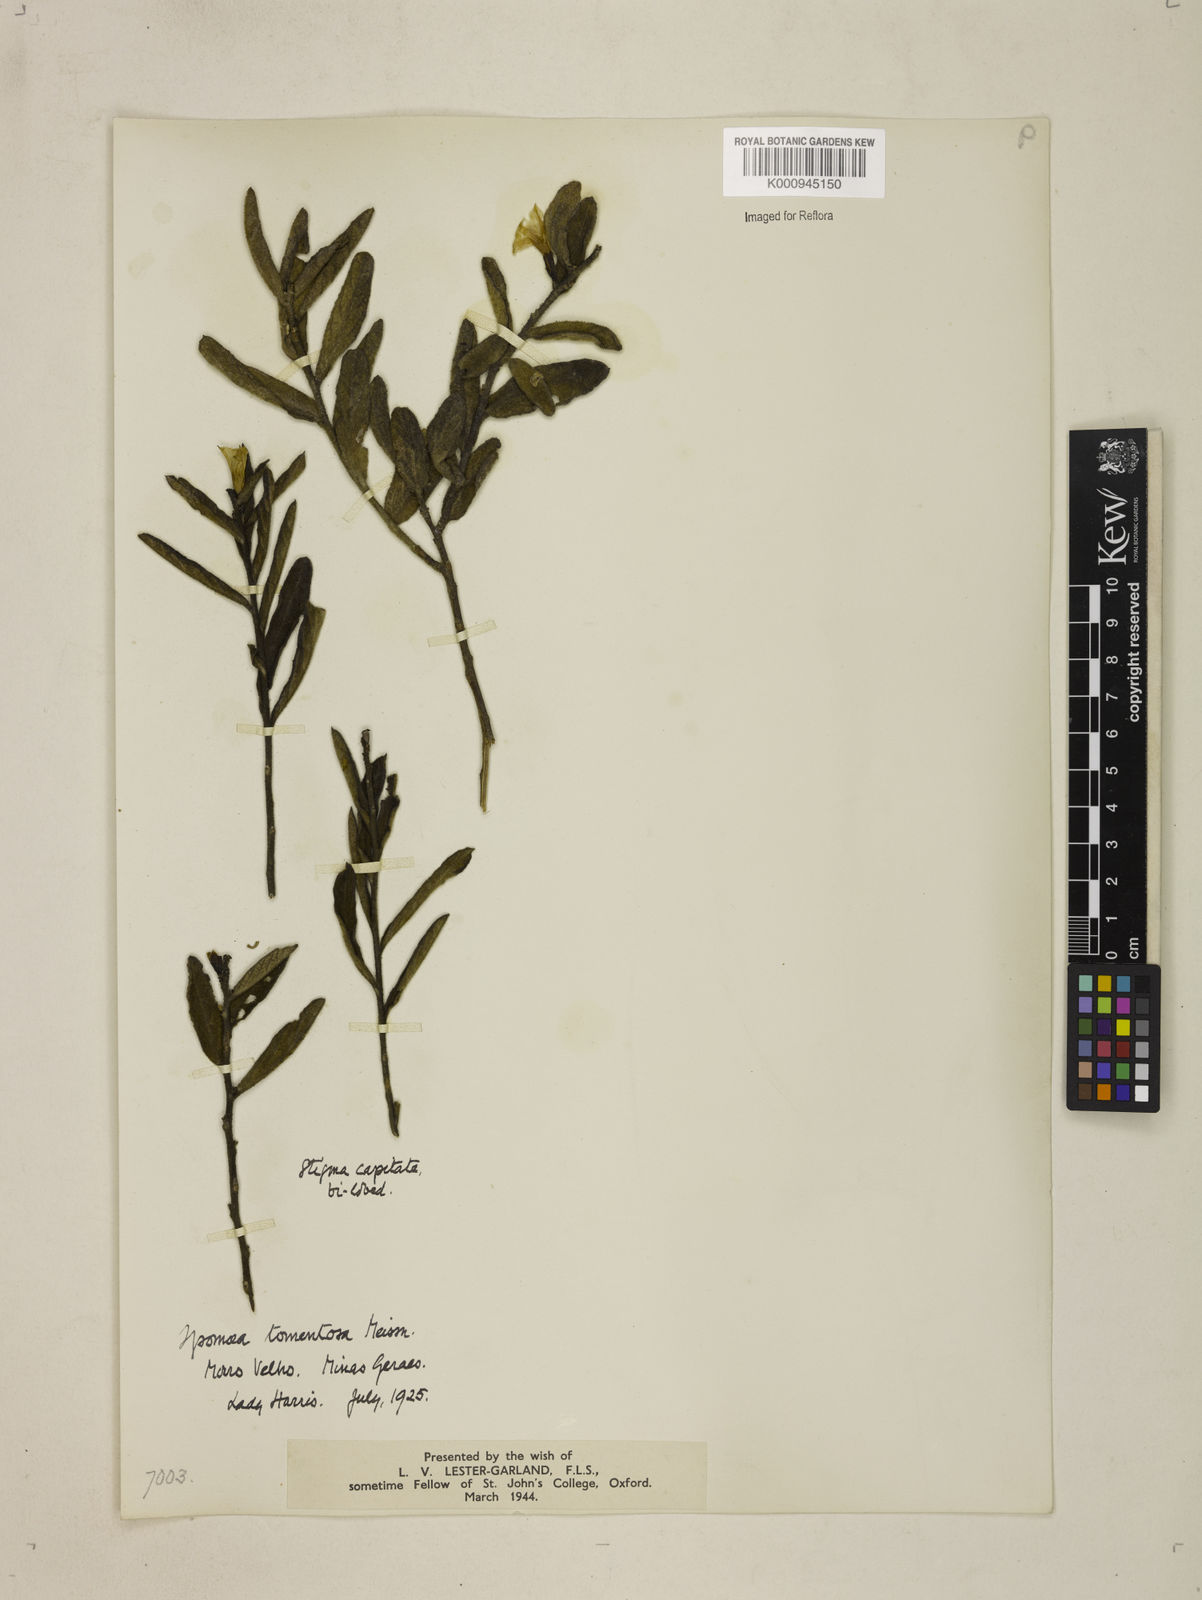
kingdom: Plantae
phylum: Tracheophyta
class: Magnoliopsida
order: Solanales
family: Convolvulaceae
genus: Distimake
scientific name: Distimake tomentosus
